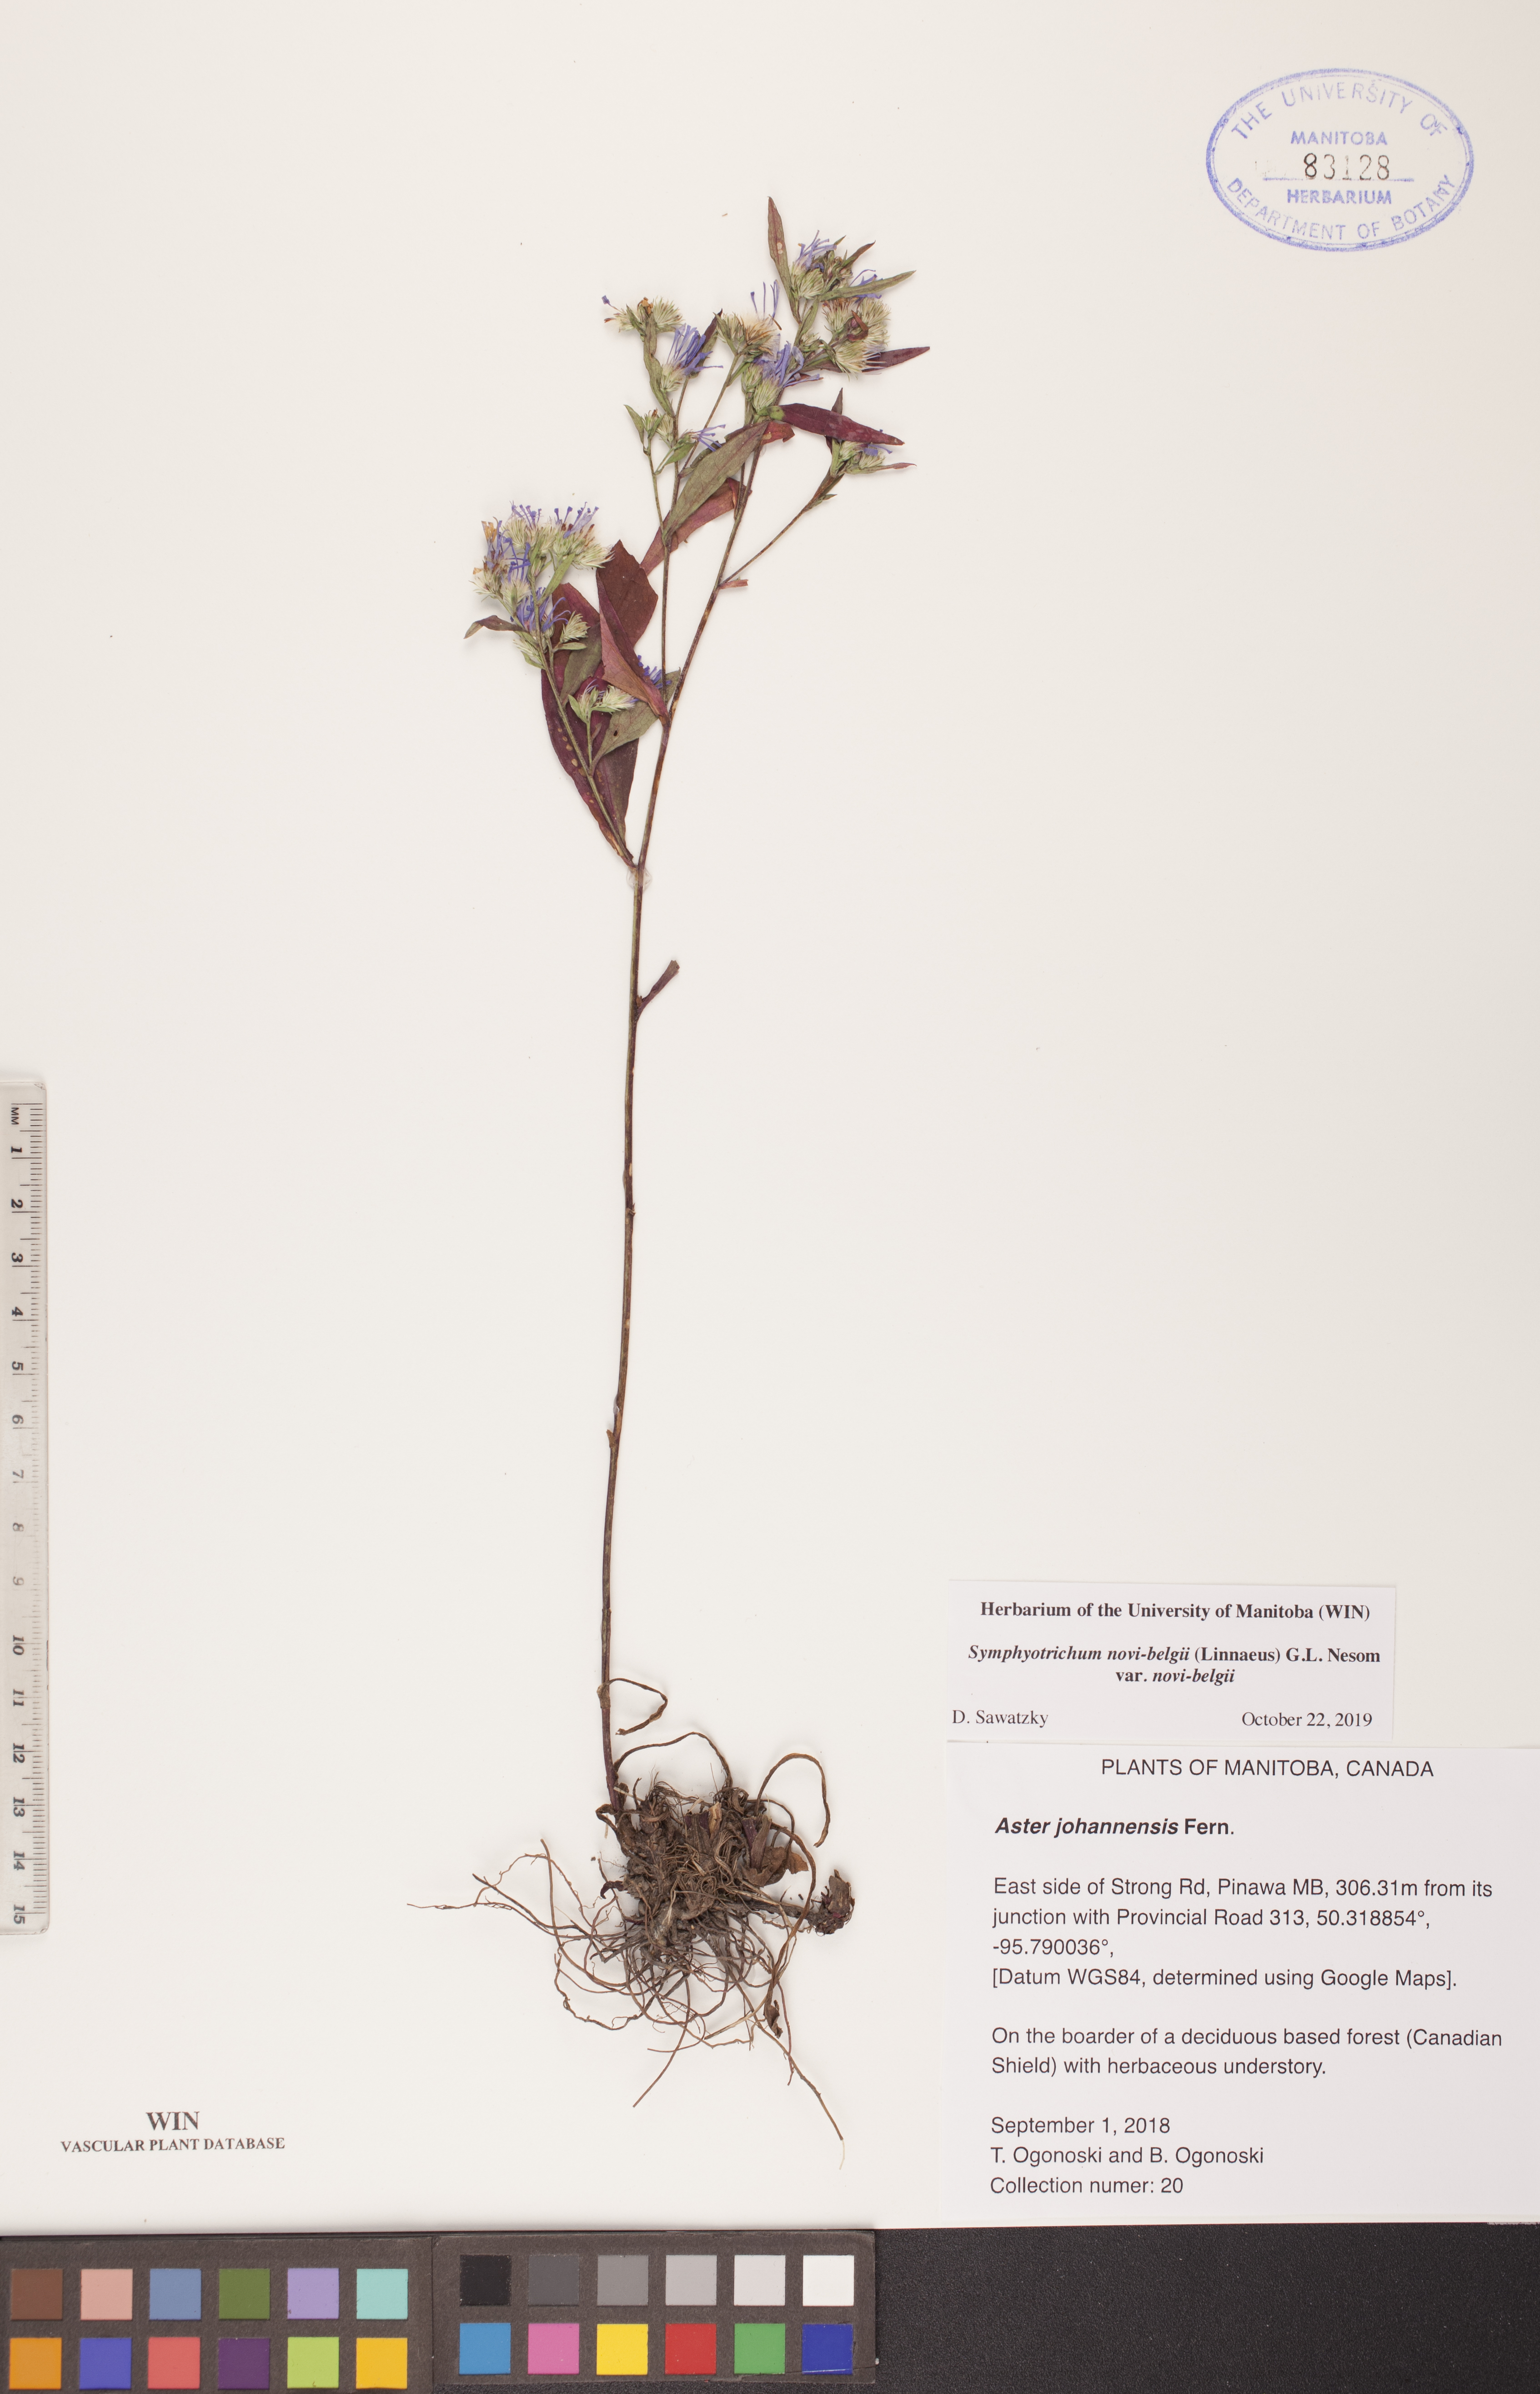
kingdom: Plantae
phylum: Tracheophyta
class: Magnoliopsida
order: Asterales
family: Asteraceae
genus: Symphyotrichum
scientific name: Symphyotrichum novi-belgii
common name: Michaelmas daisy
